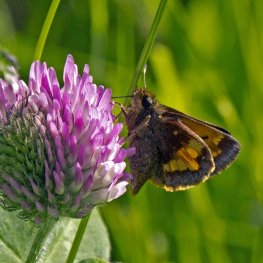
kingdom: Animalia
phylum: Arthropoda
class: Insecta
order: Lepidoptera
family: Hesperiidae
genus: Lon
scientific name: Lon hobomok
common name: Hobomok Skipper
